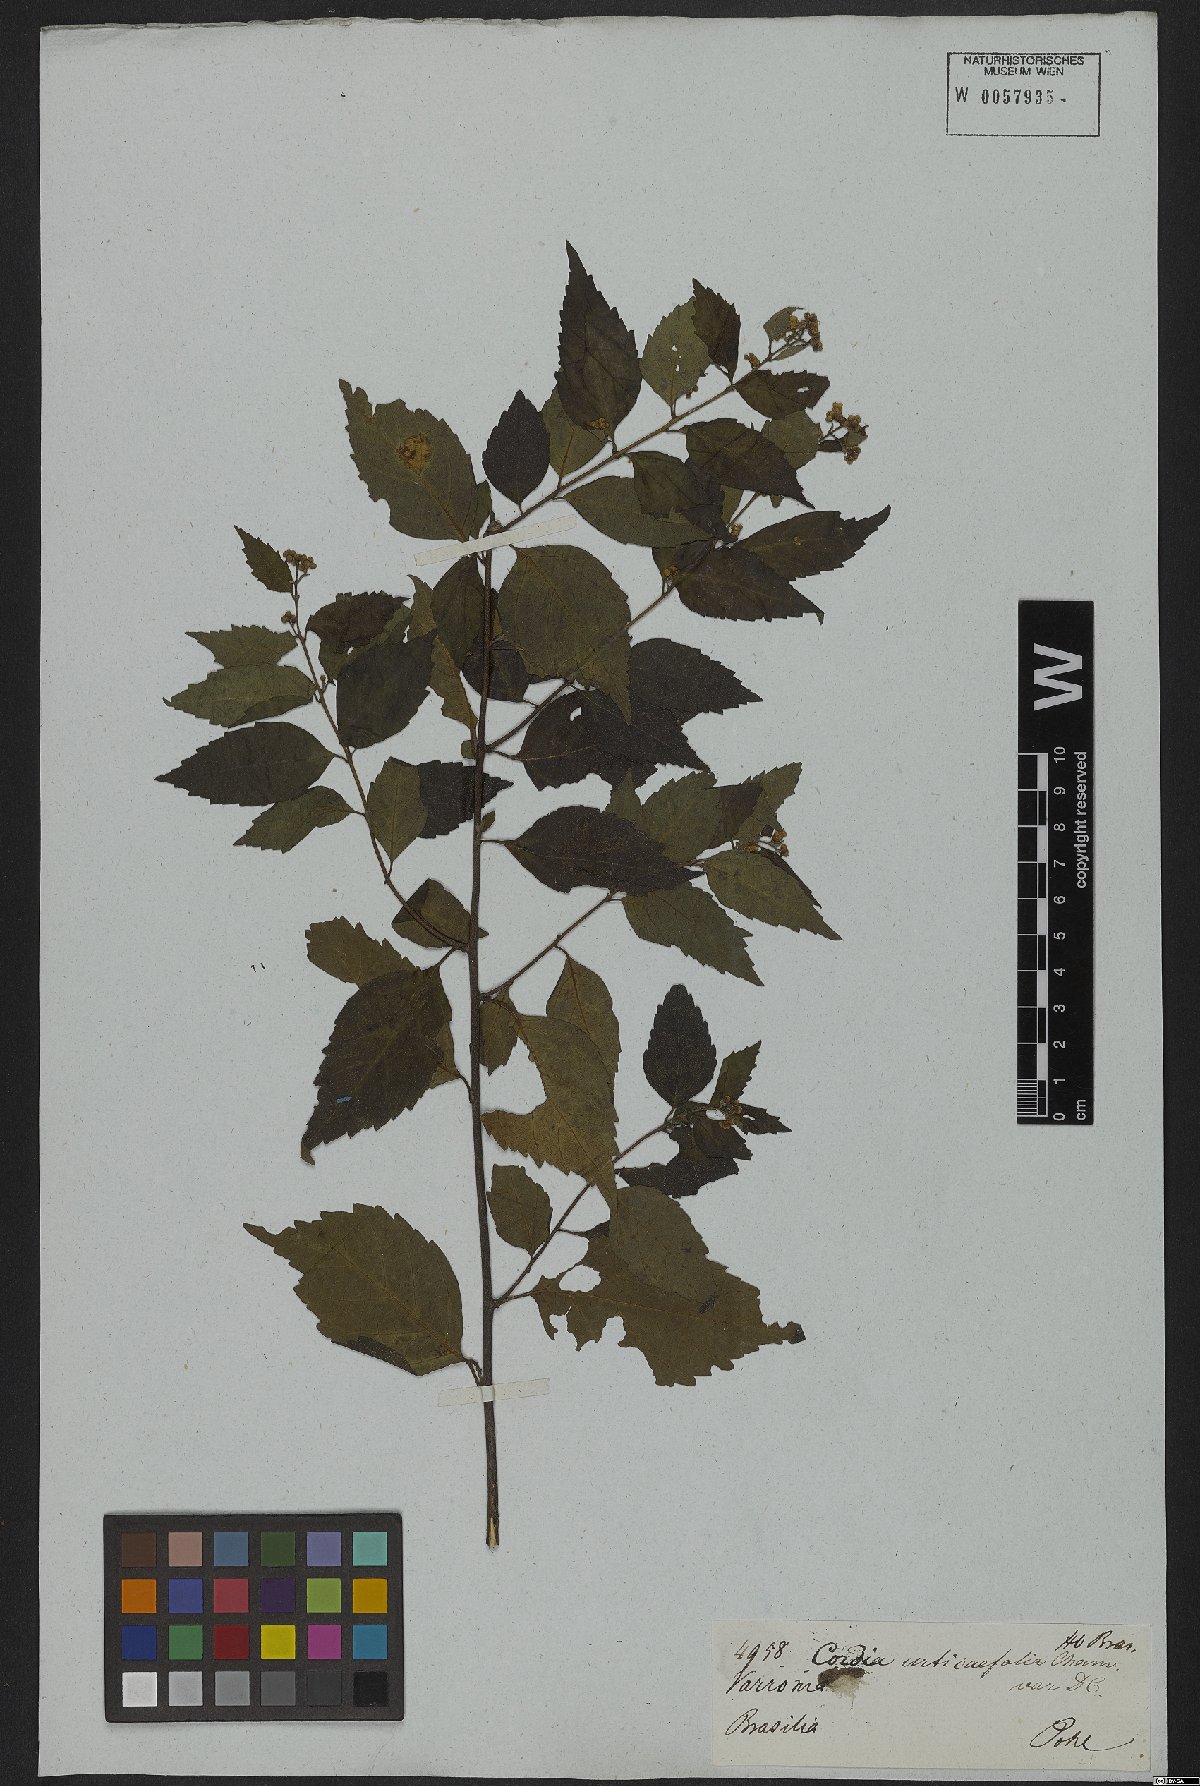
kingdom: Plantae
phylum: Tracheophyta
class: Magnoliopsida
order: Boraginales
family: Cordiaceae
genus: Varronia
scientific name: Varronia polycephala
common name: Black-sage
